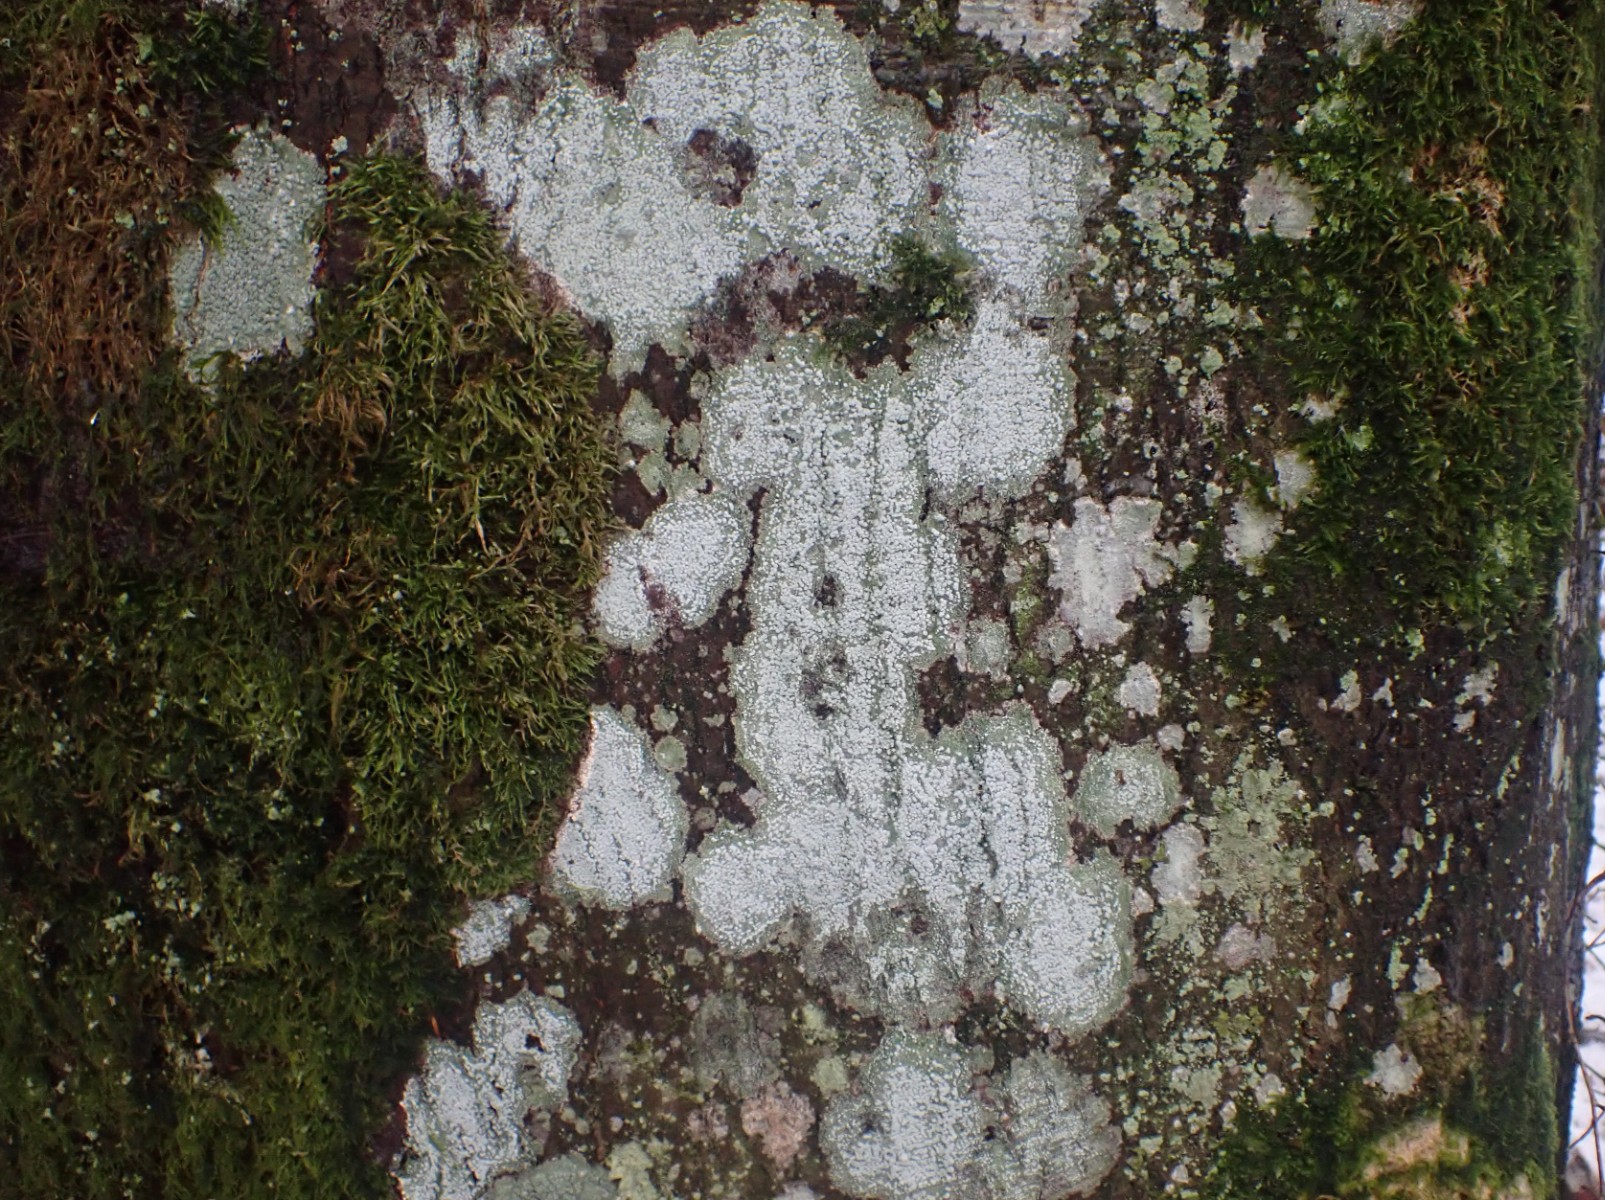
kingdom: Fungi
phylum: Ascomycota
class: Lecanoromycetes
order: Pertusariales
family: Pertusariaceae
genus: Lepra
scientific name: Lepra amara
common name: bitter prikvortelav
